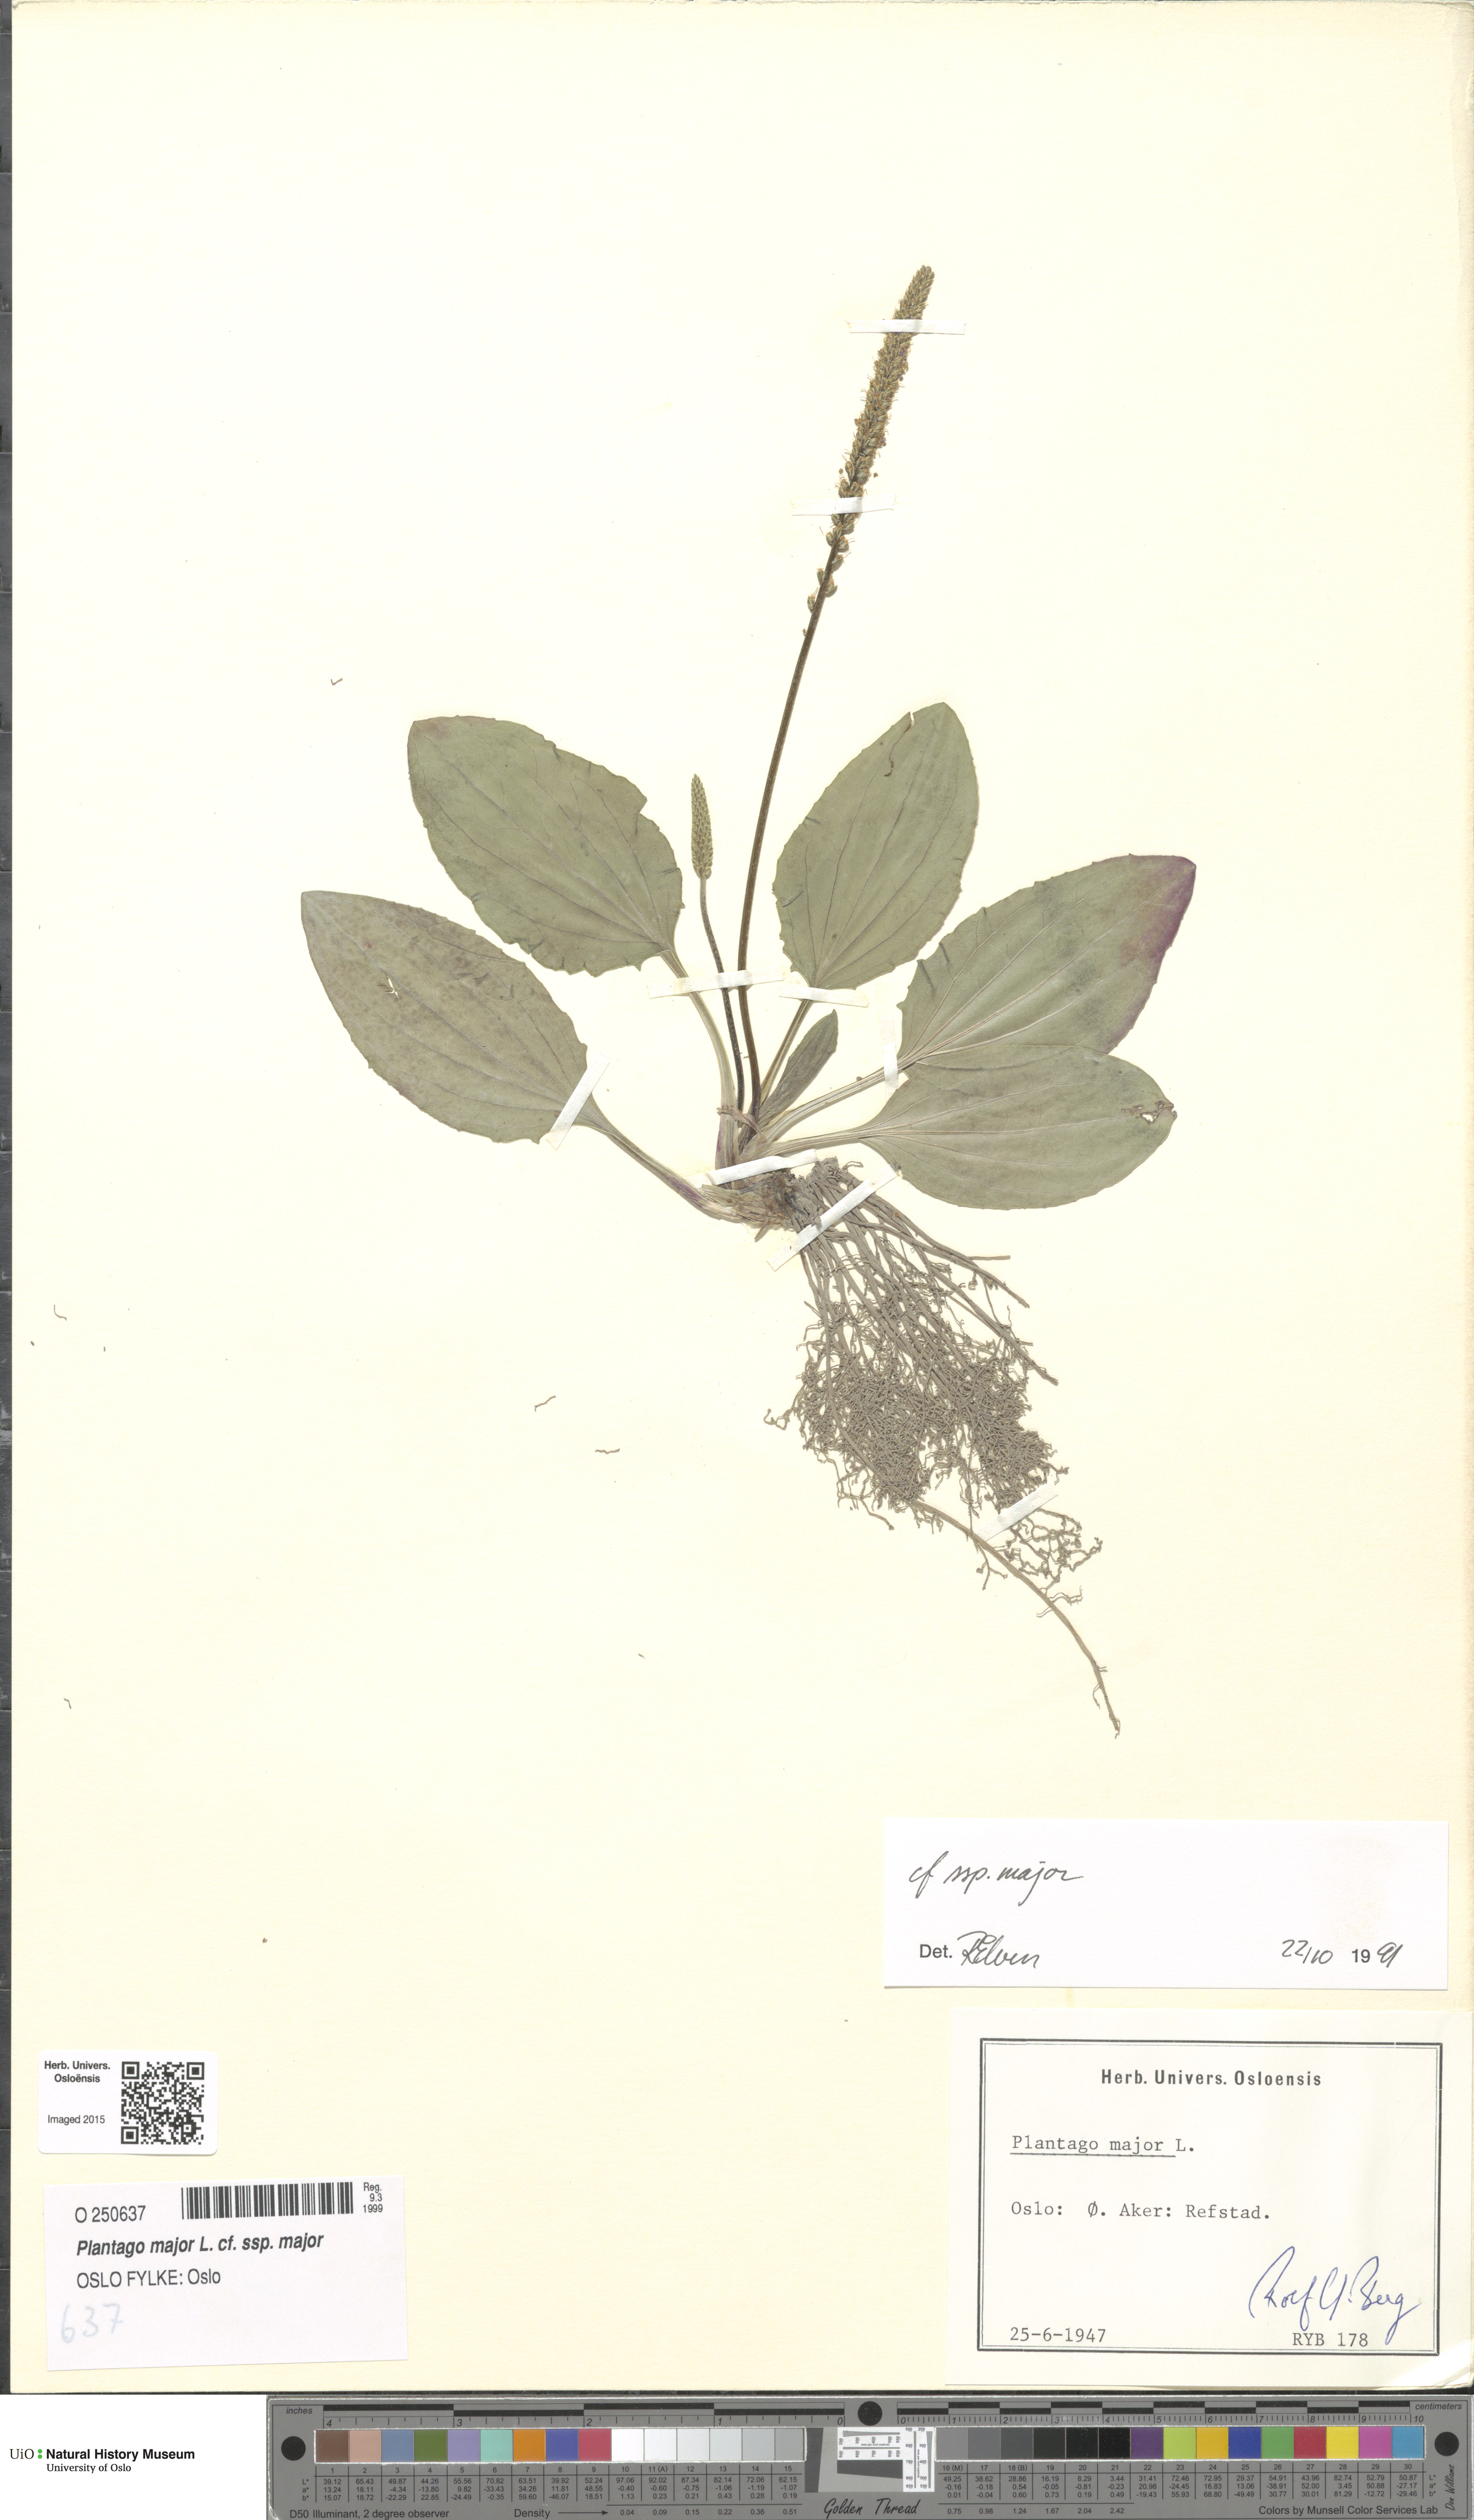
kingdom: Plantae
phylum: Tracheophyta
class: Magnoliopsida
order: Lamiales
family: Plantaginaceae
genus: Plantago
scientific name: Plantago major
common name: Common plantain
